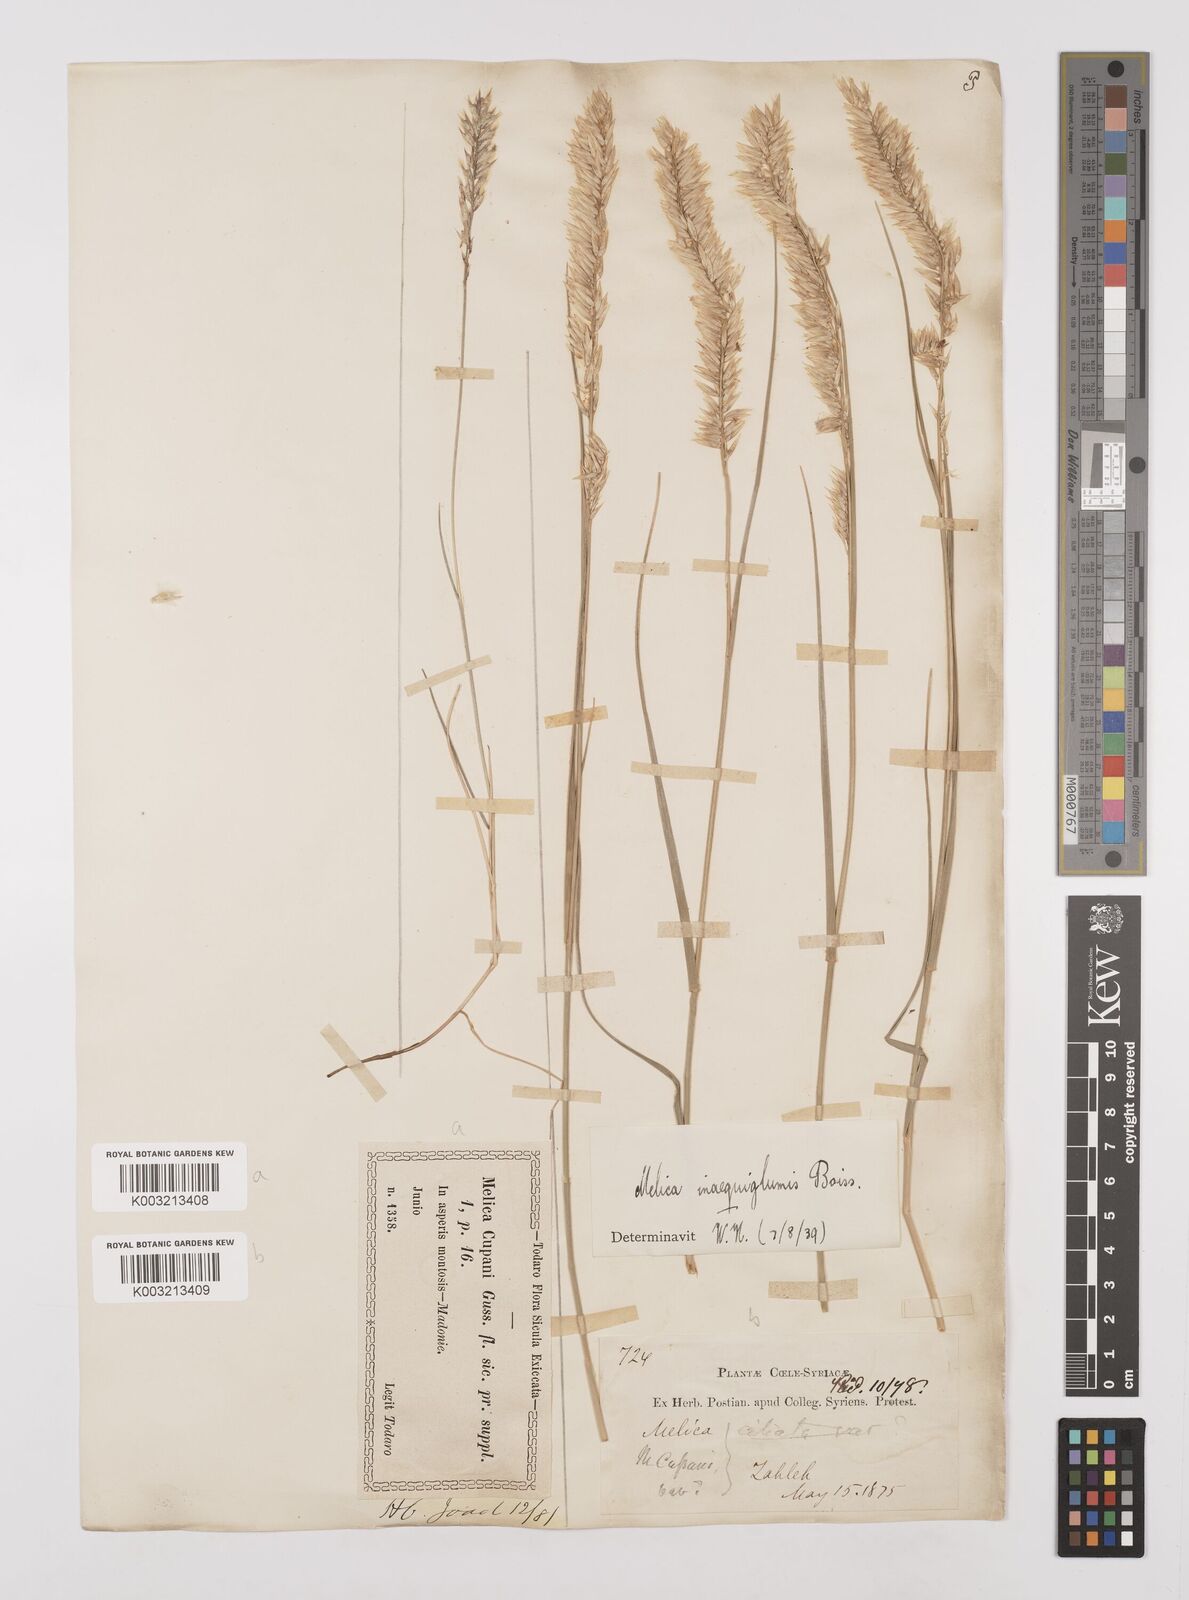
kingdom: Plantae
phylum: Tracheophyta
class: Liliopsida
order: Poales
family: Poaceae
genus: Melica
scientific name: Melica persica
